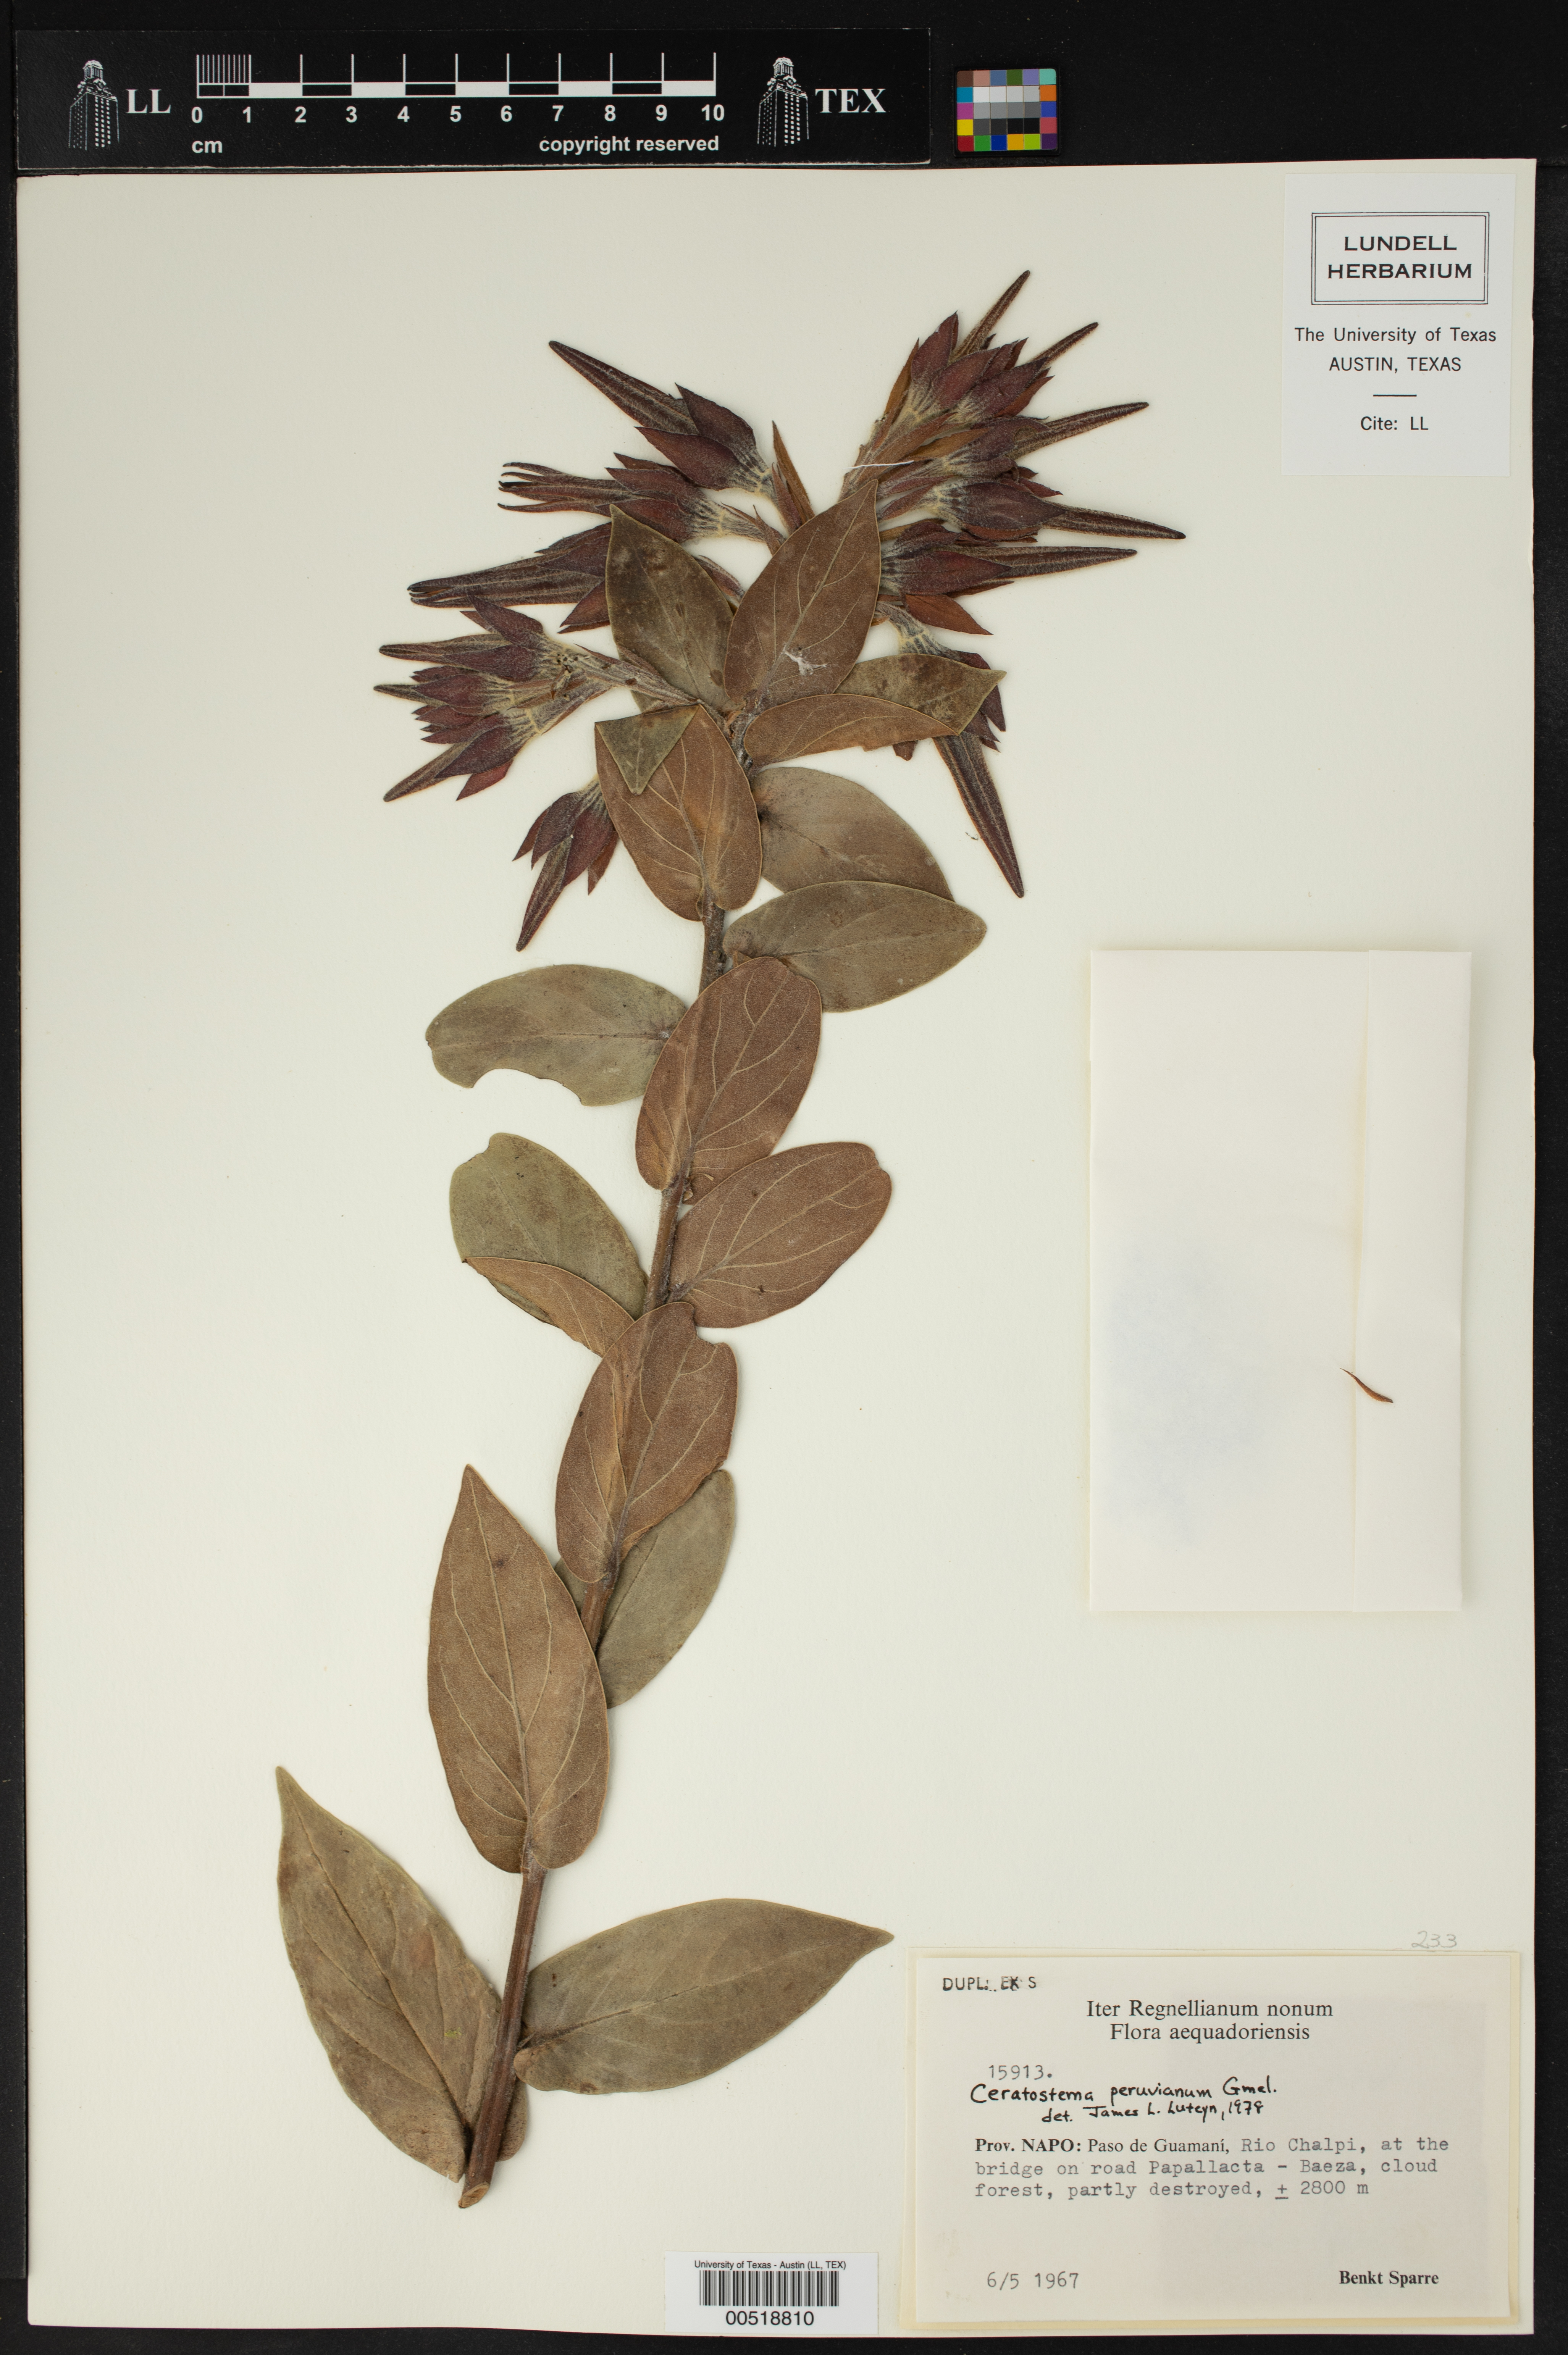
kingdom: Plantae
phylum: Tracheophyta
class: Magnoliopsida
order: Ericales
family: Ericaceae
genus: Ceratostema
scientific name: Ceratostema peruvianum
